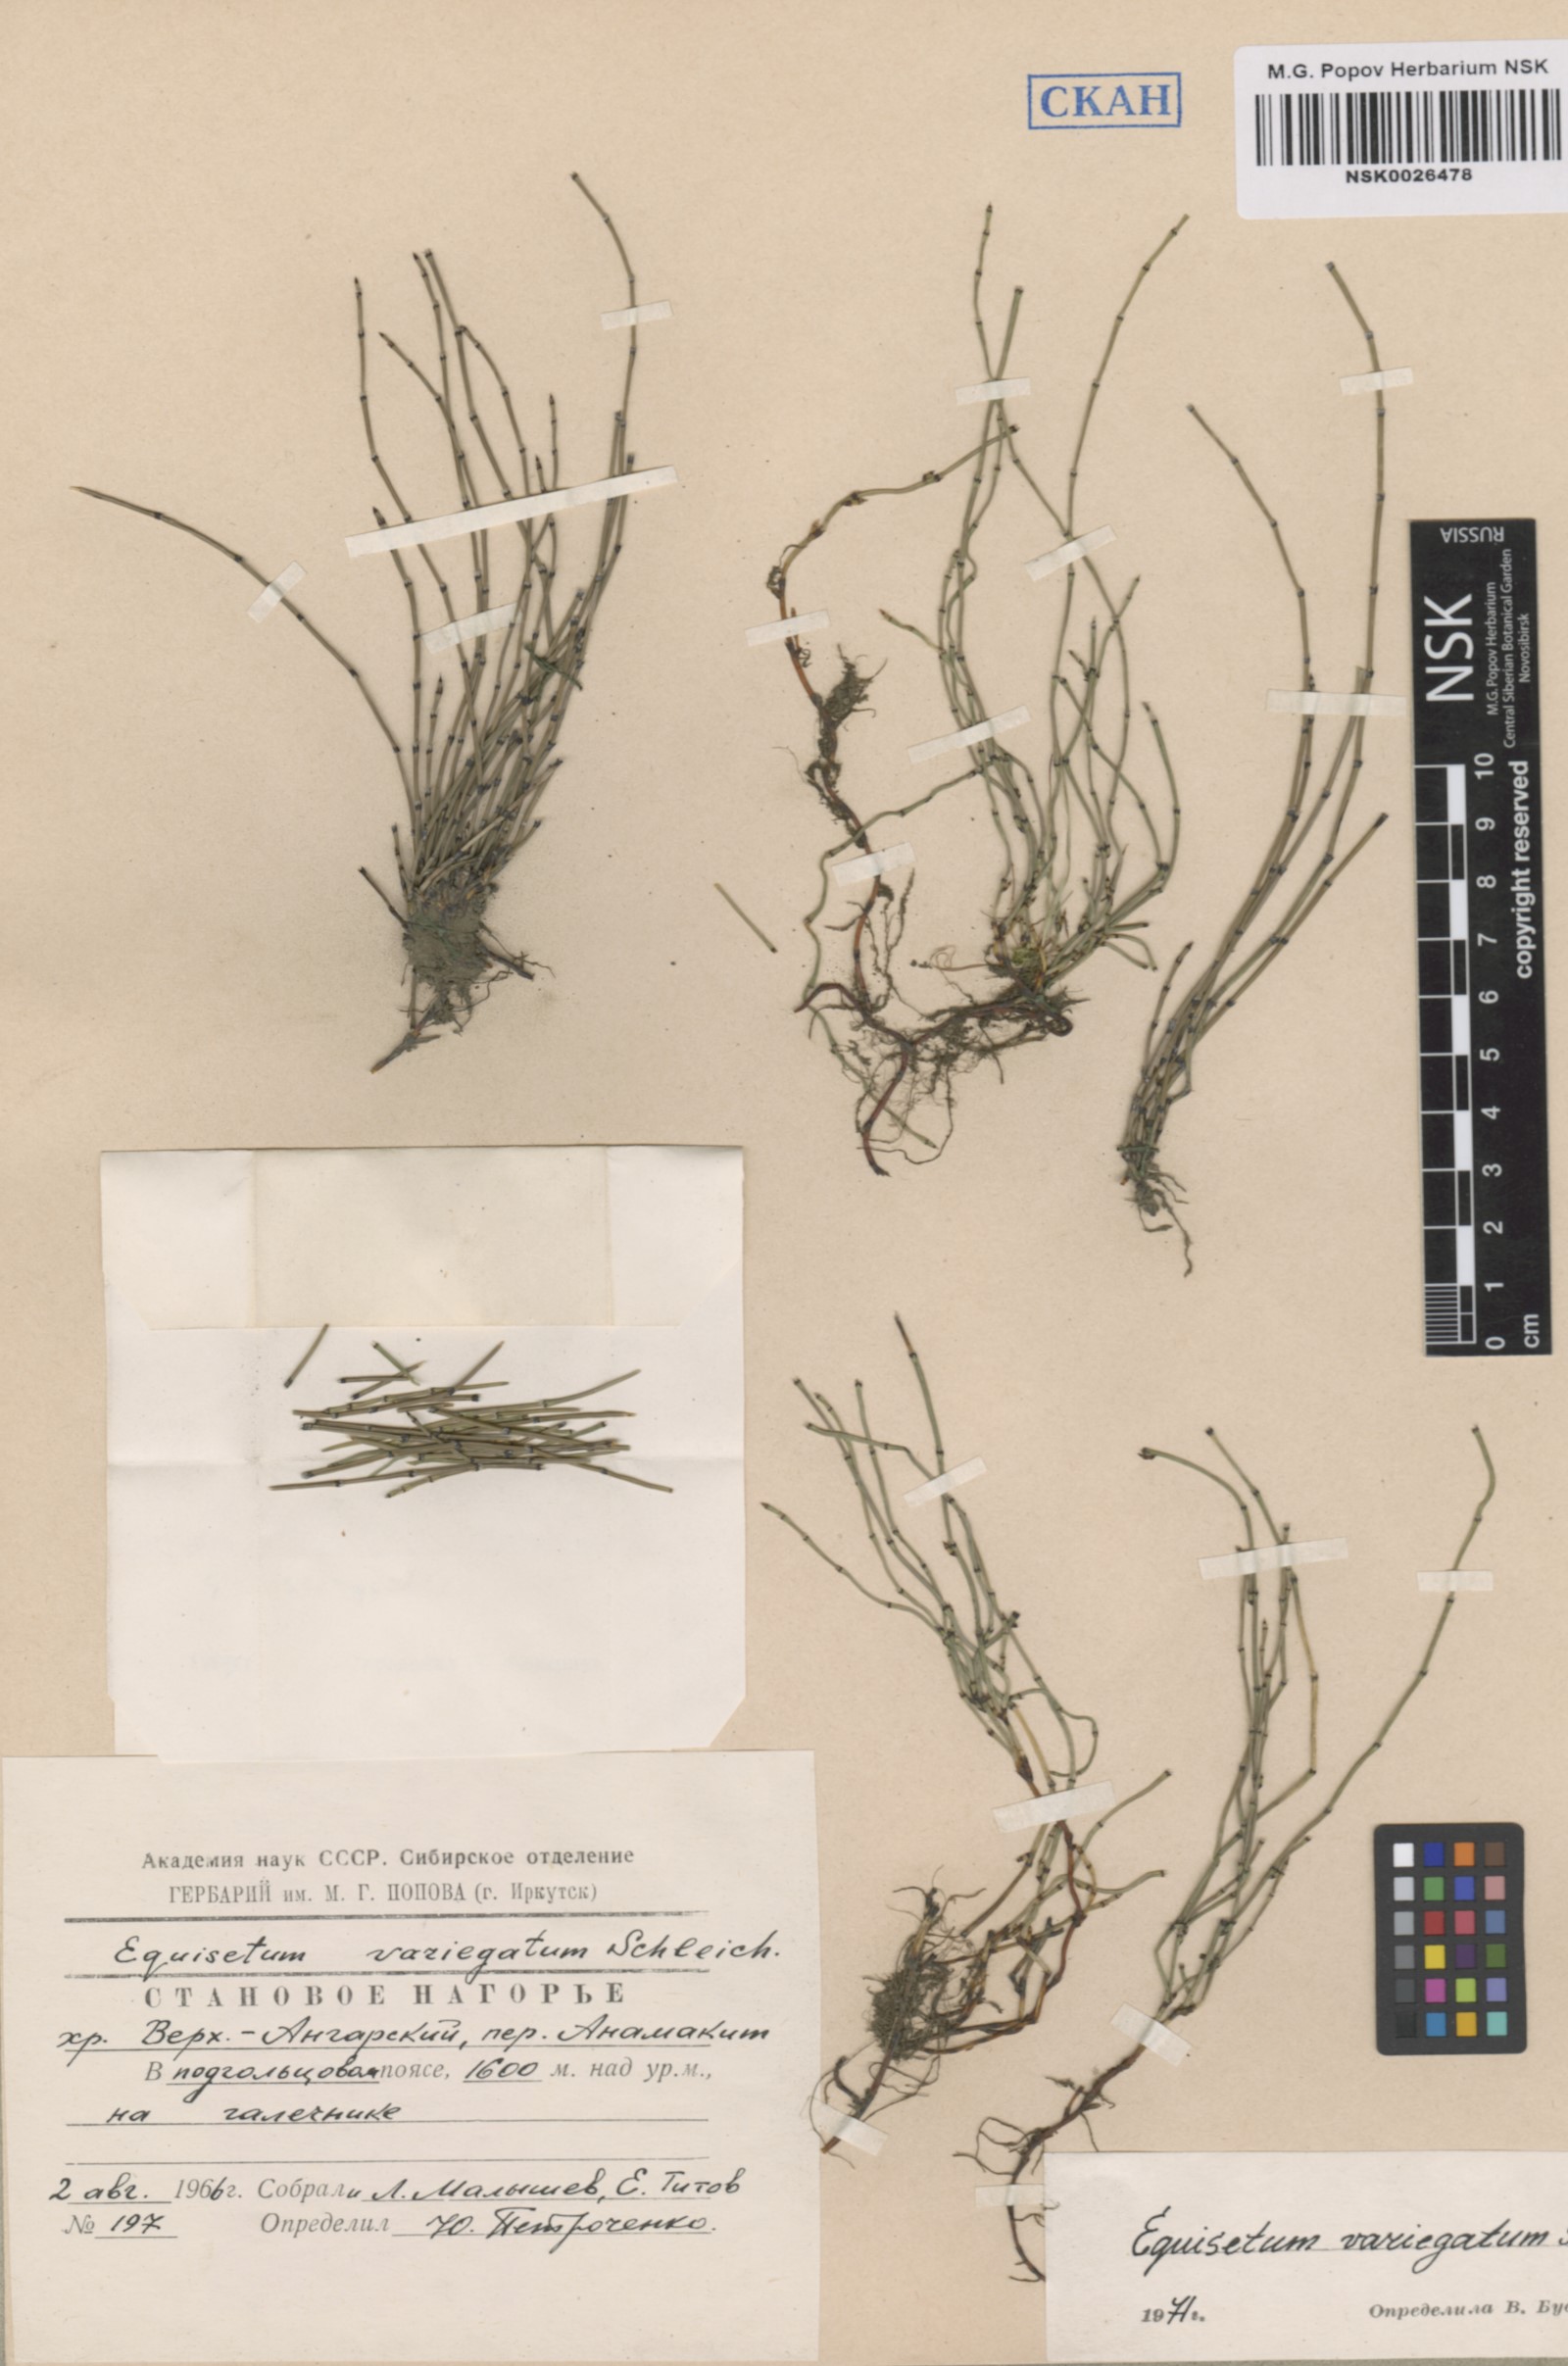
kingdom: Plantae
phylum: Tracheophyta
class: Polypodiopsida
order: Equisetales
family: Equisetaceae
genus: Equisetum
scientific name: Equisetum variegatum
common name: Variegated horsetail
